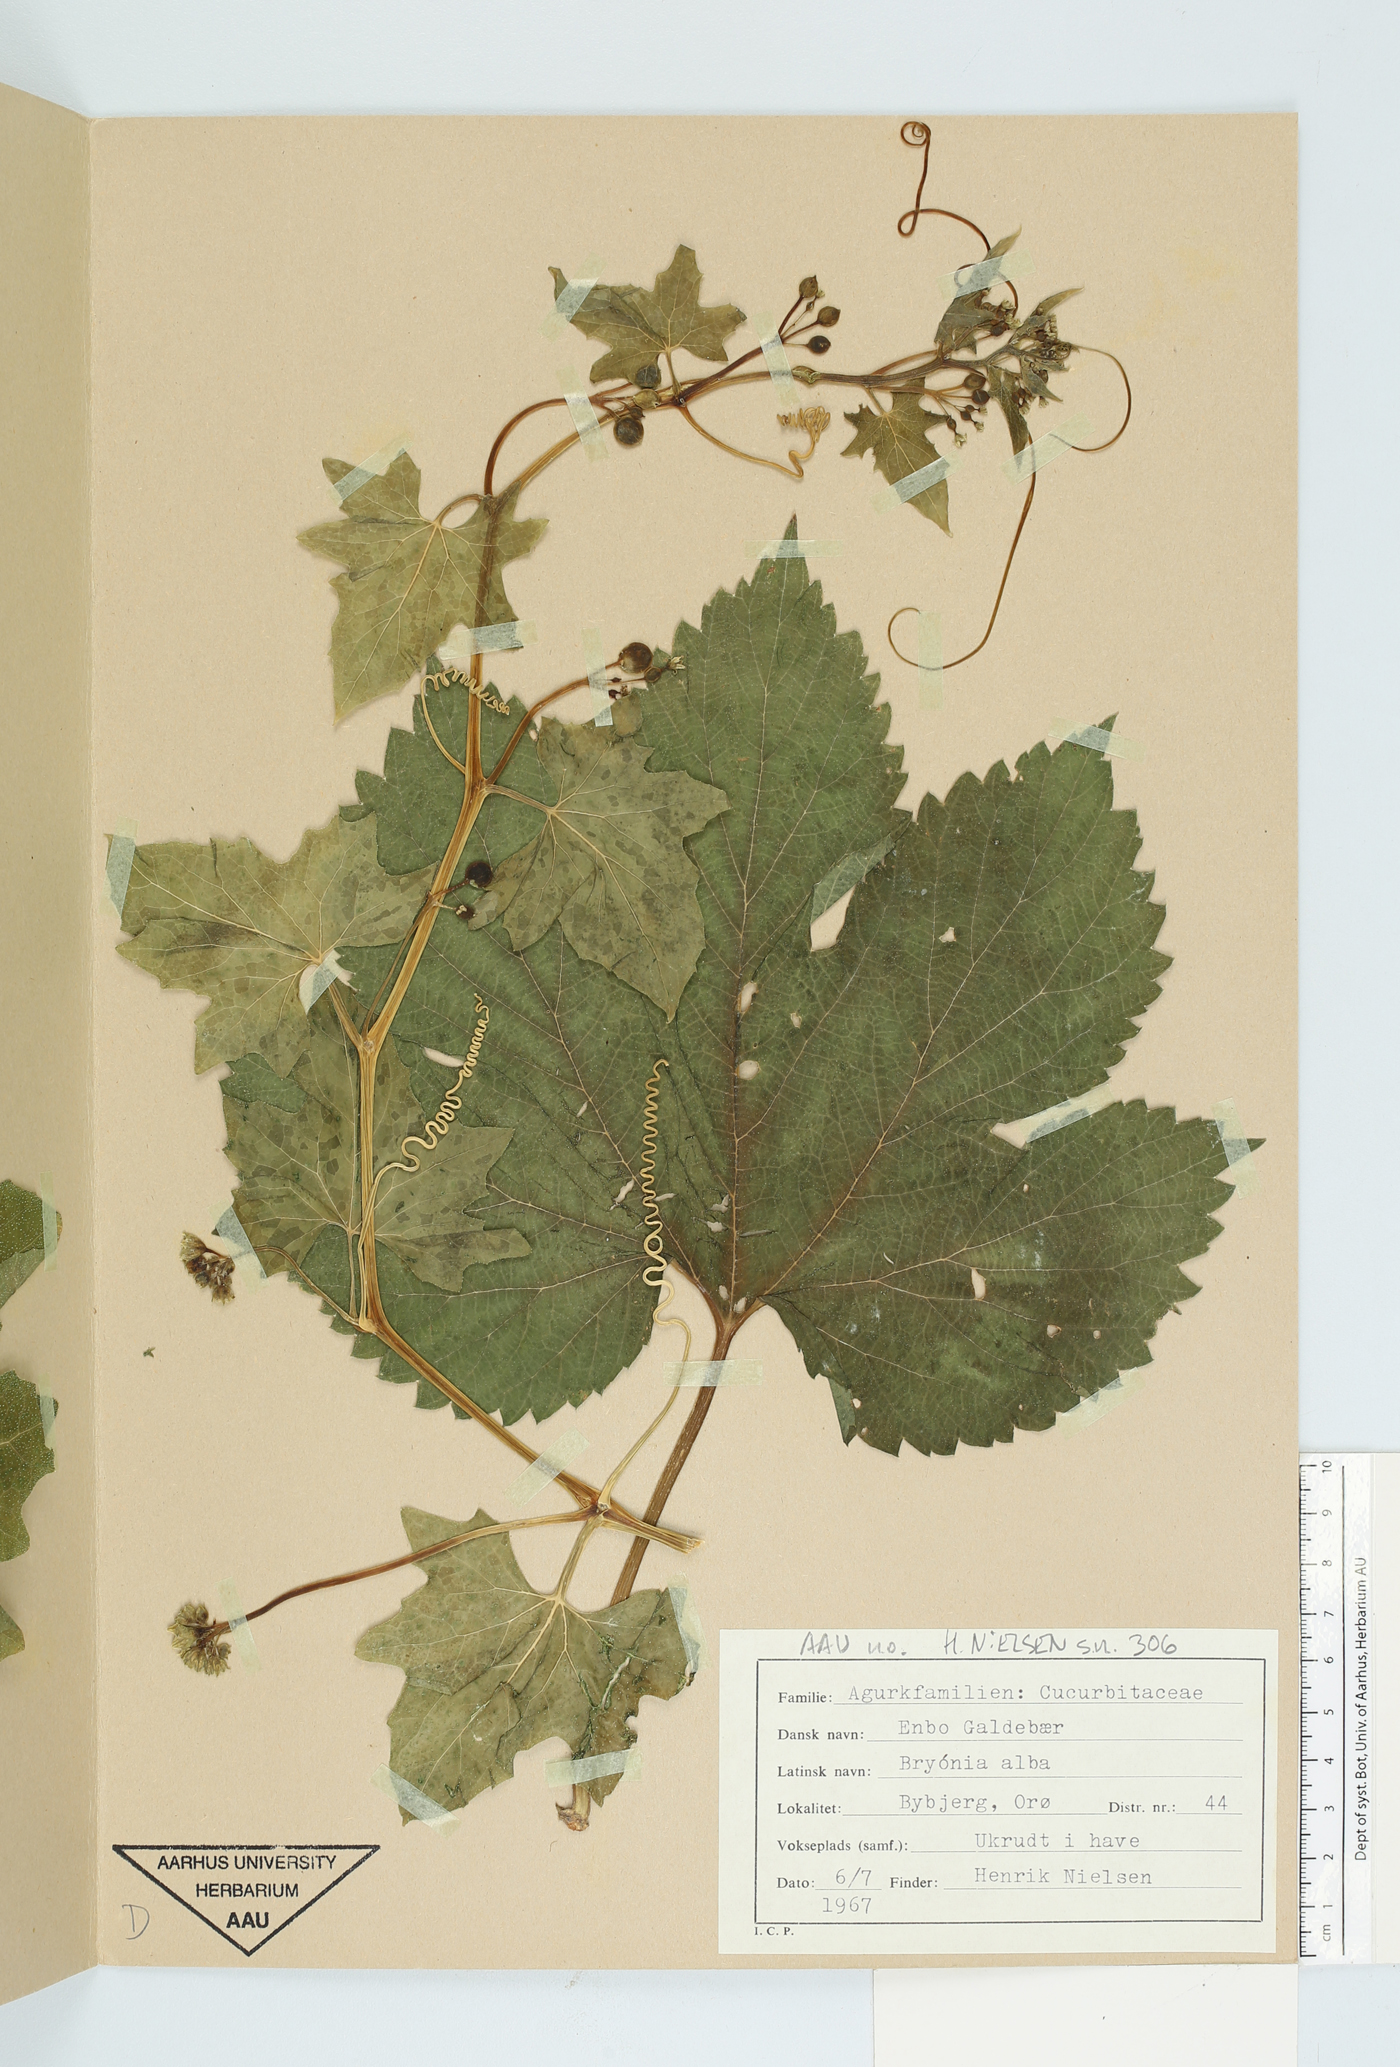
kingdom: Plantae
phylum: Tracheophyta
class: Magnoliopsida
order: Cucurbitales
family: Cucurbitaceae
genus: Bryonia
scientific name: Bryonia alba
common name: White bryony
